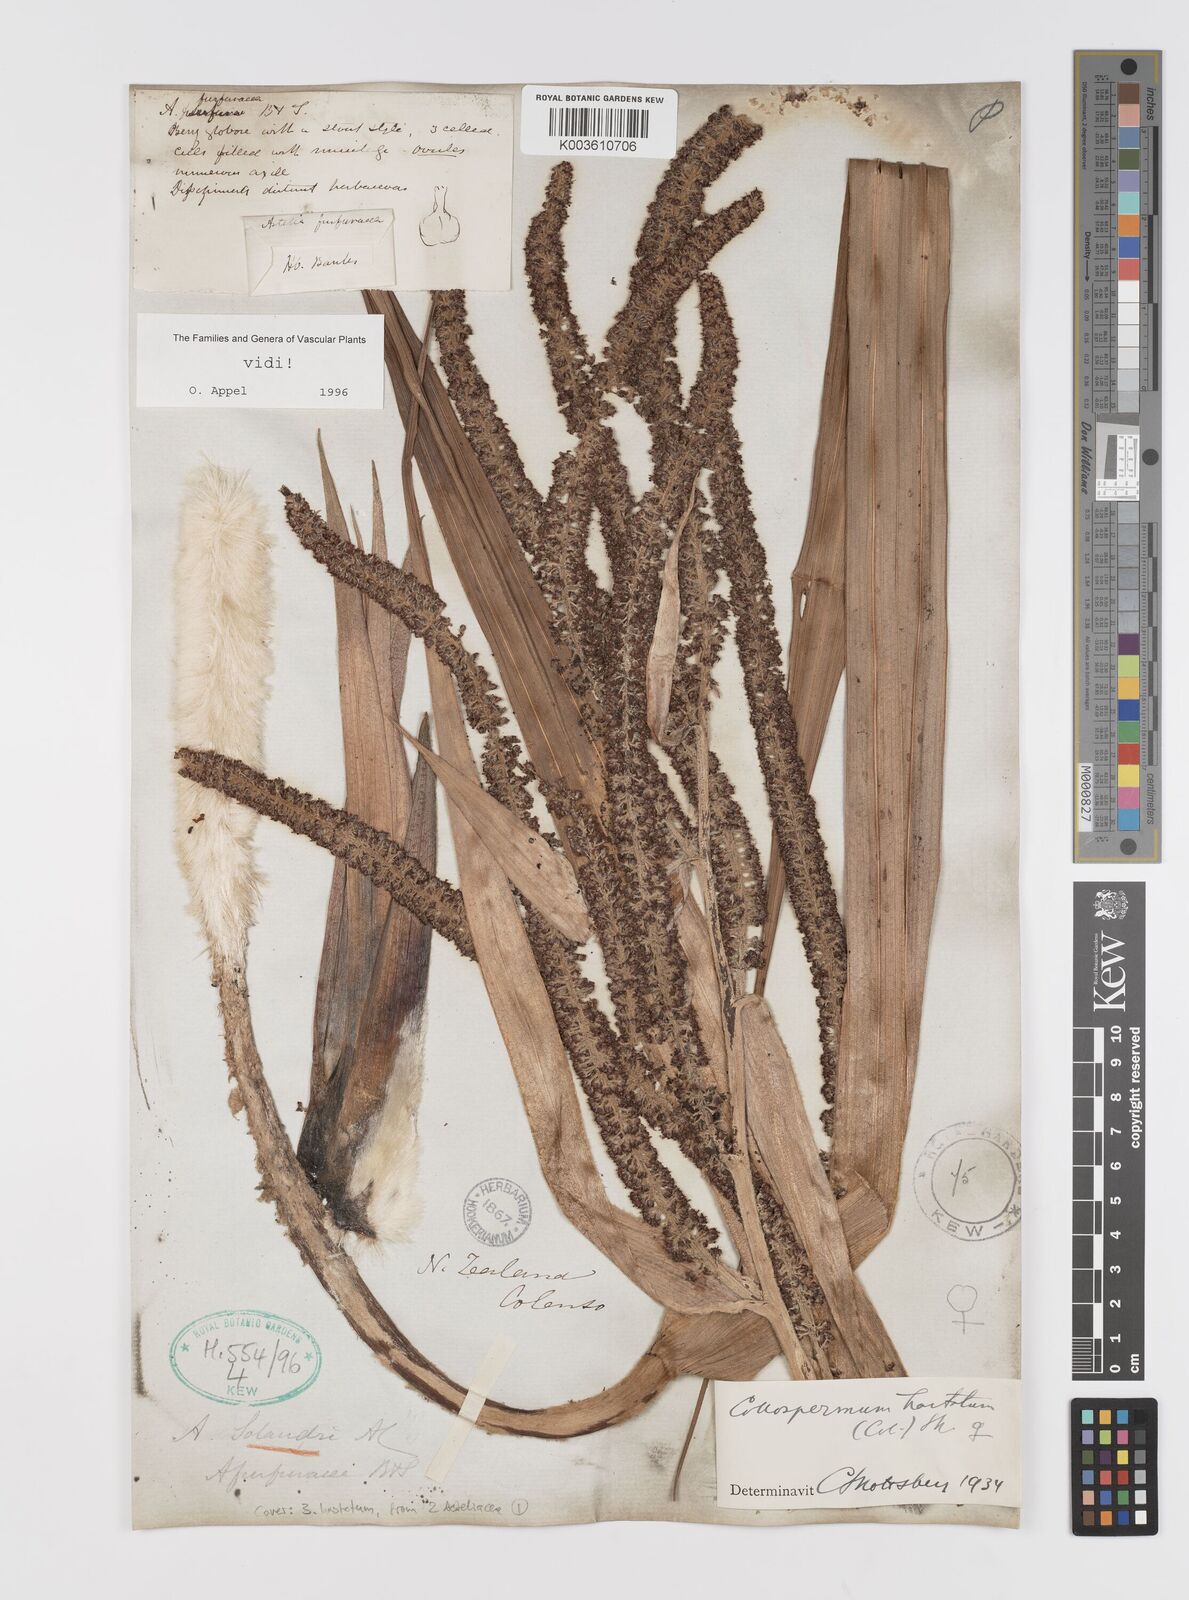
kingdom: Plantae
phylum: Tracheophyta
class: Liliopsida
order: Asparagales
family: Asteliaceae
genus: Astelia
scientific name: Astelia hastata
